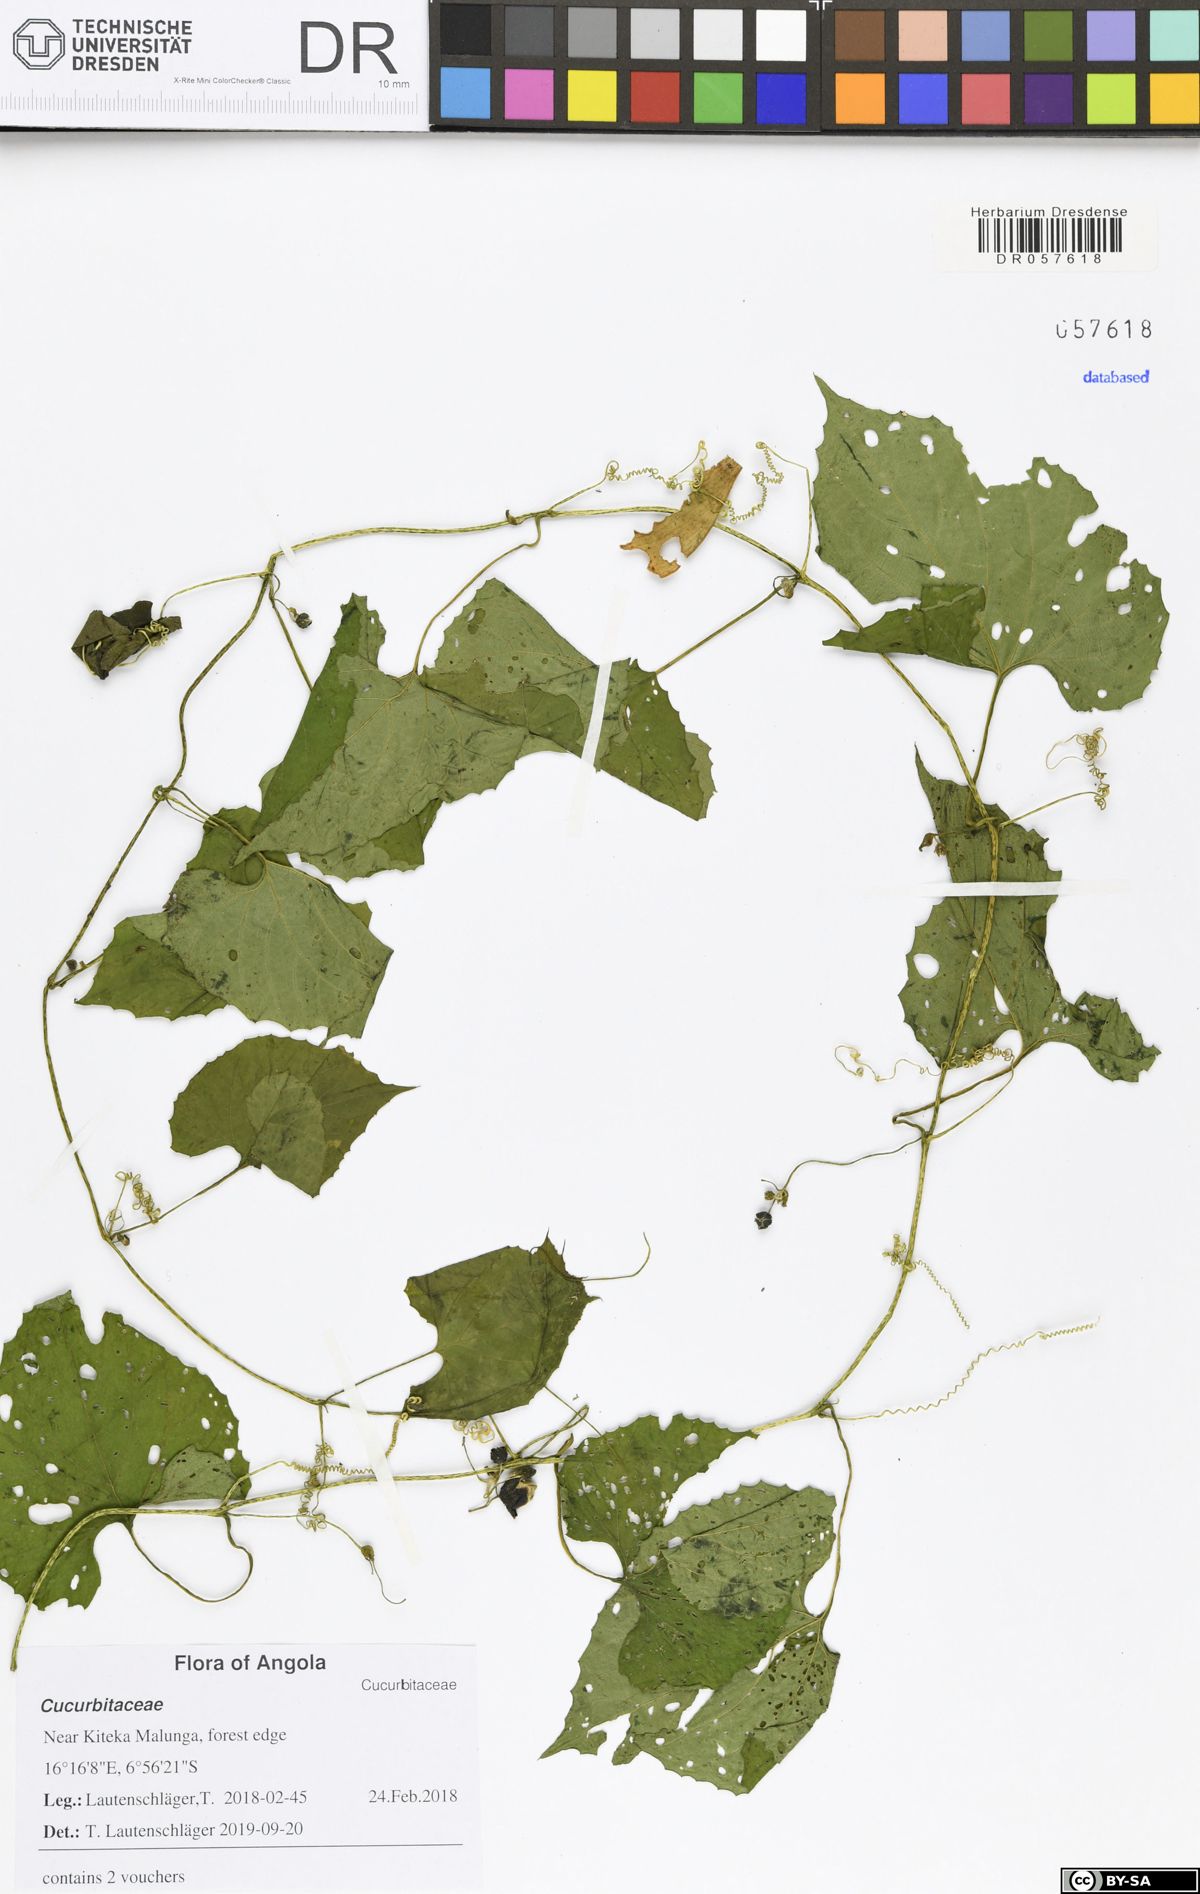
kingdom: Plantae
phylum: Tracheophyta
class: Magnoliopsida
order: Cucurbitales
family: Cucurbitaceae
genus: Momordica
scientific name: Momordica foetida
